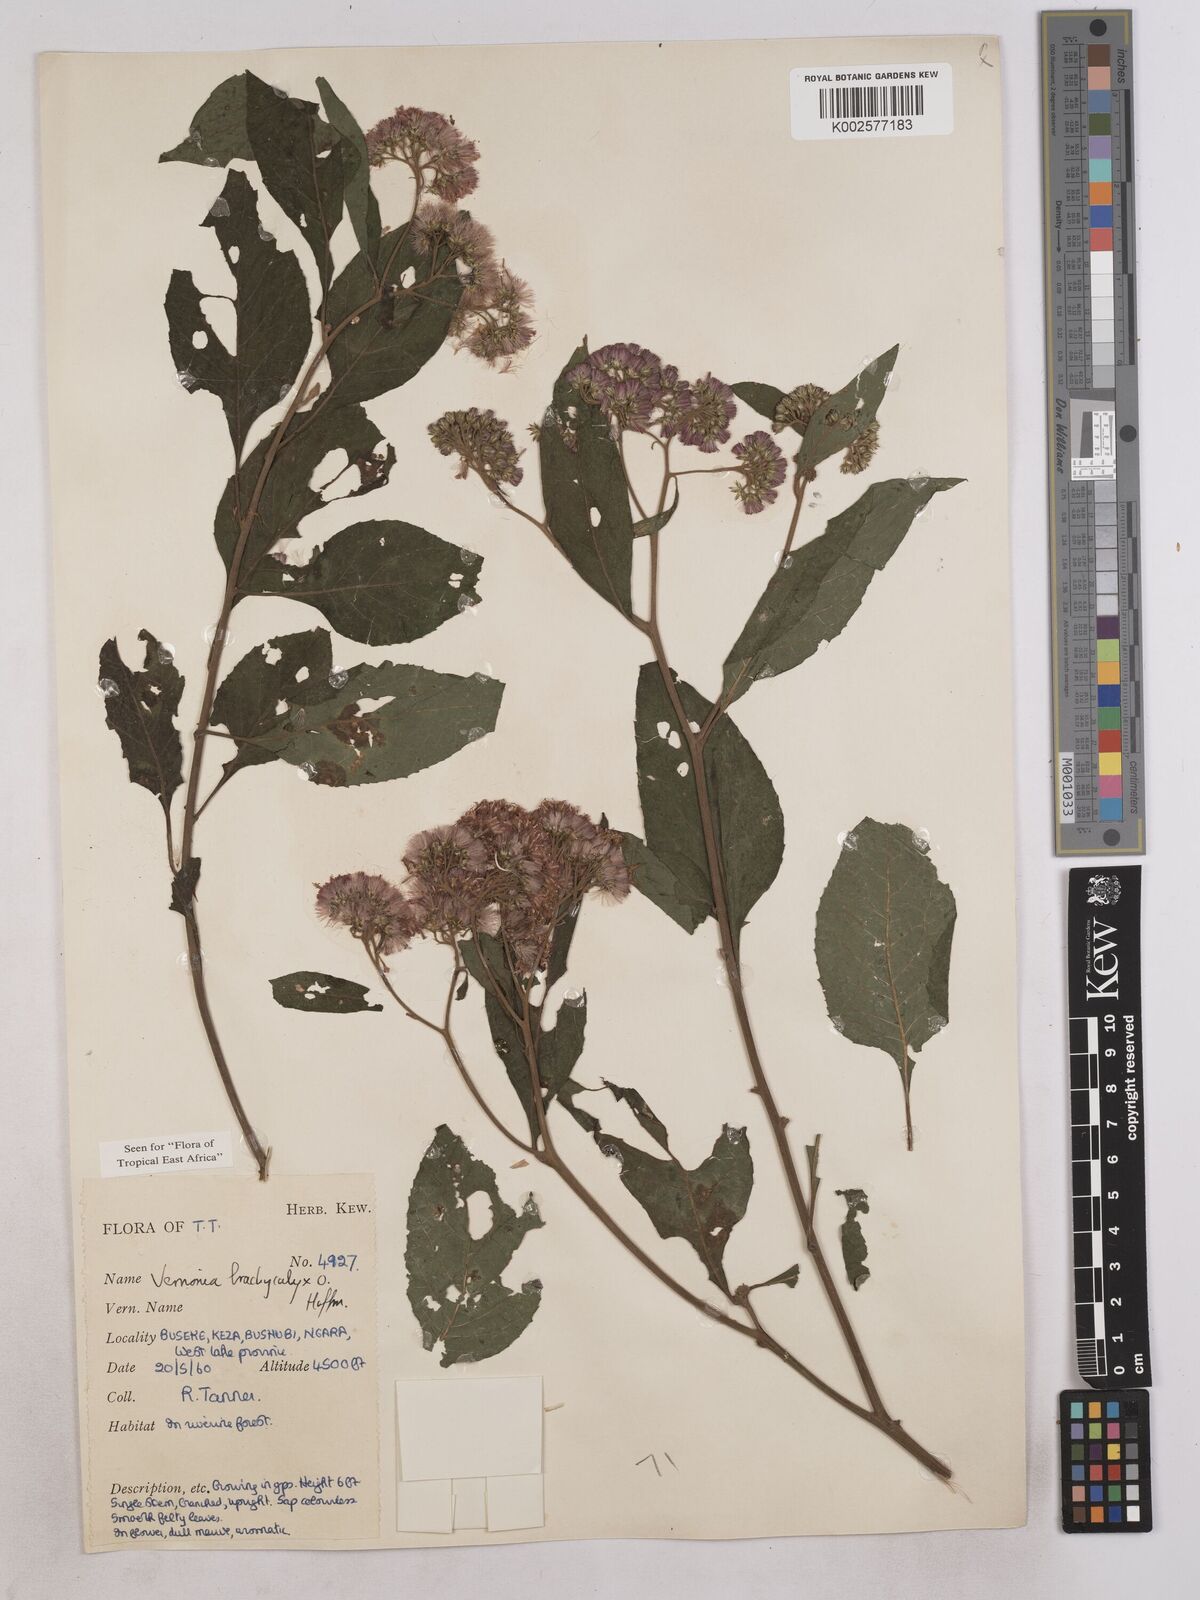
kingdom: Plantae
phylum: Tracheophyta
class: Magnoliopsida
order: Asterales
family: Asteraceae
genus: Hoffmannanthus
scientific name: Hoffmannanthus abbotianus
